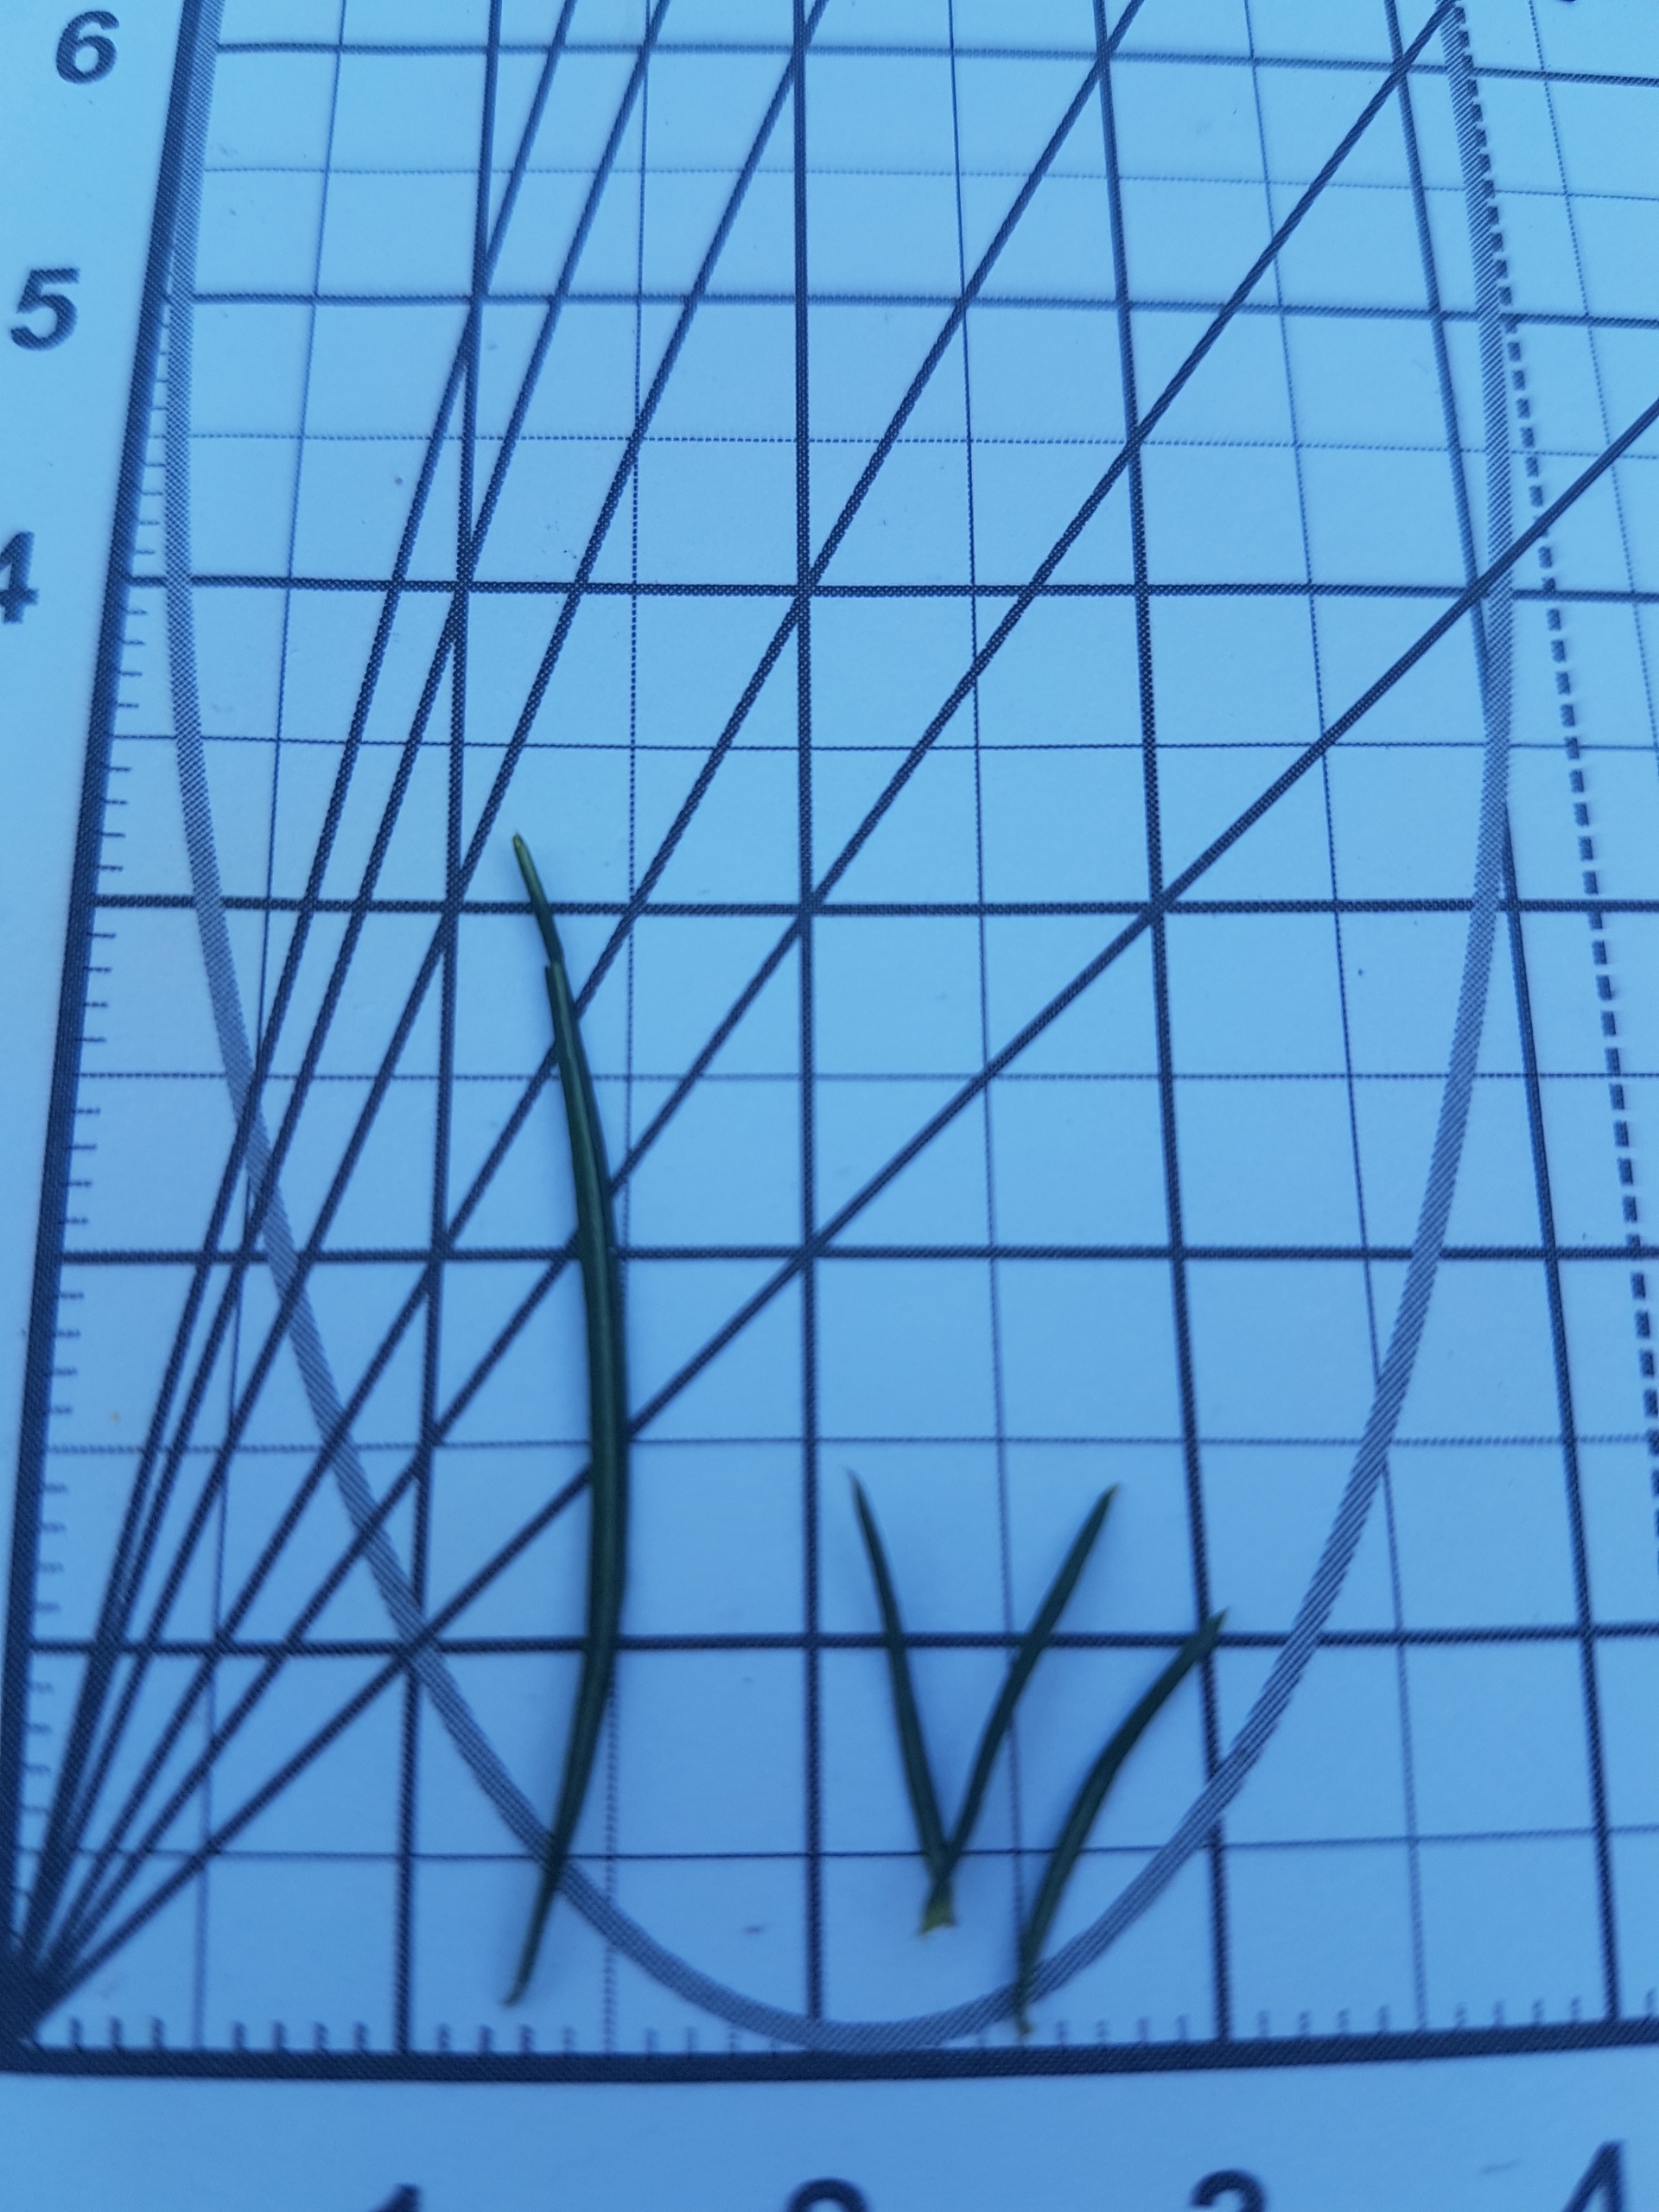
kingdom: Plantae
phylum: Tracheophyta
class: Magnoliopsida
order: Gentianales
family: Rubiaceae
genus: Galium
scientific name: Galium verum
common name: Gul snerre
